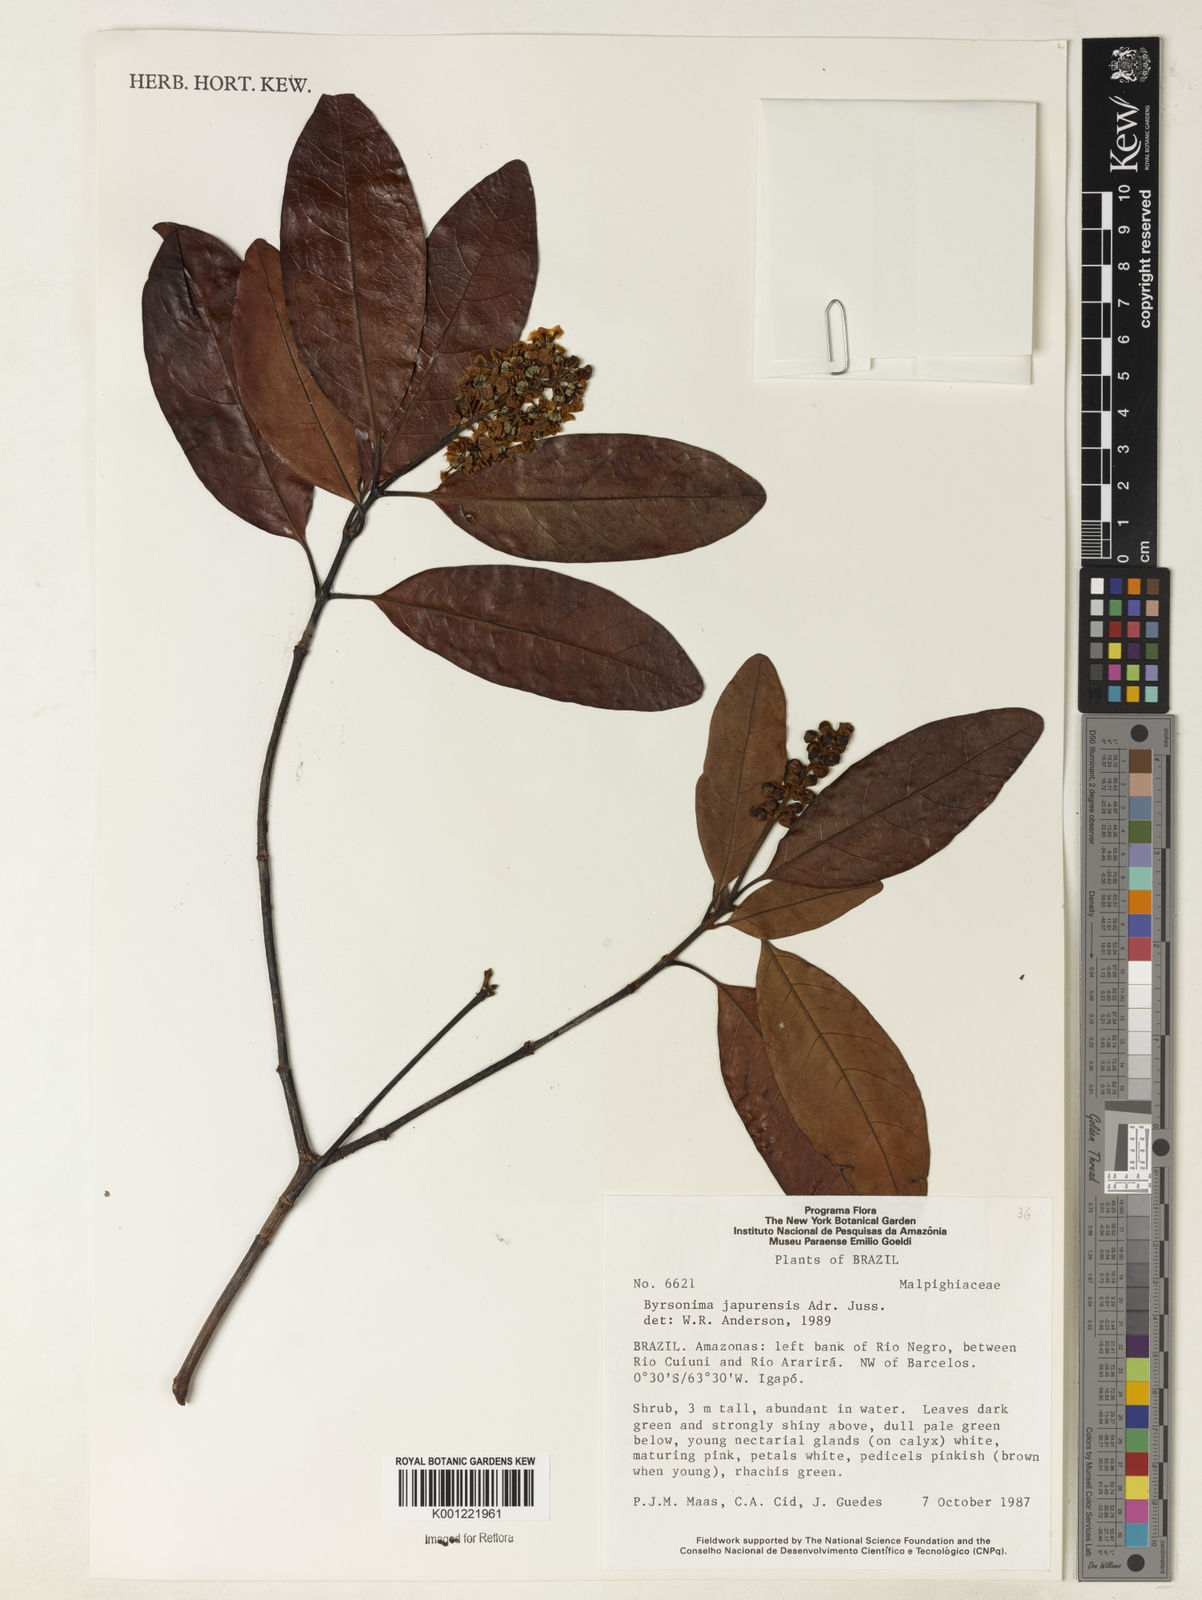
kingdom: Plantae
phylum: Tracheophyta
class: Magnoliopsida
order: Malpighiales
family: Malpighiaceae
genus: Byrsonima
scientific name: Byrsonima japurensis
